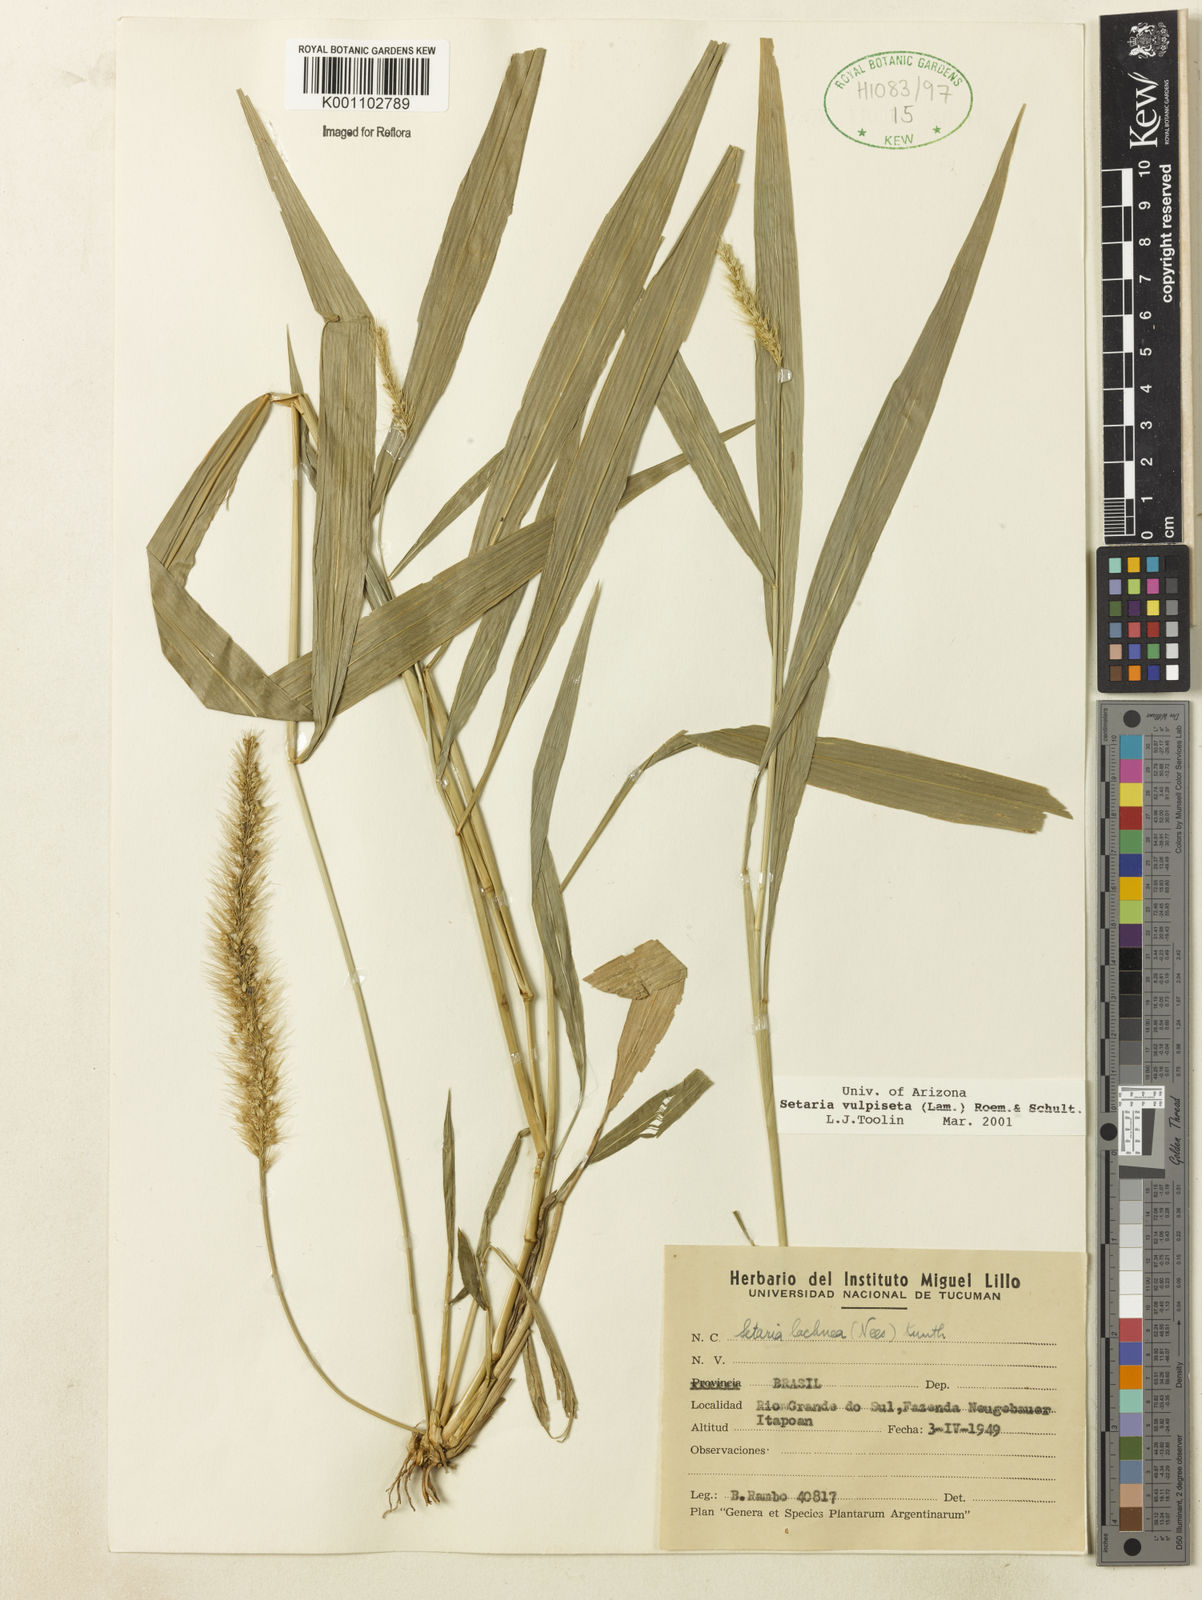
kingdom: Plantae
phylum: Tracheophyta
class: Liliopsida
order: Poales
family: Poaceae
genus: Setaria
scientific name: Setaria lachnea
